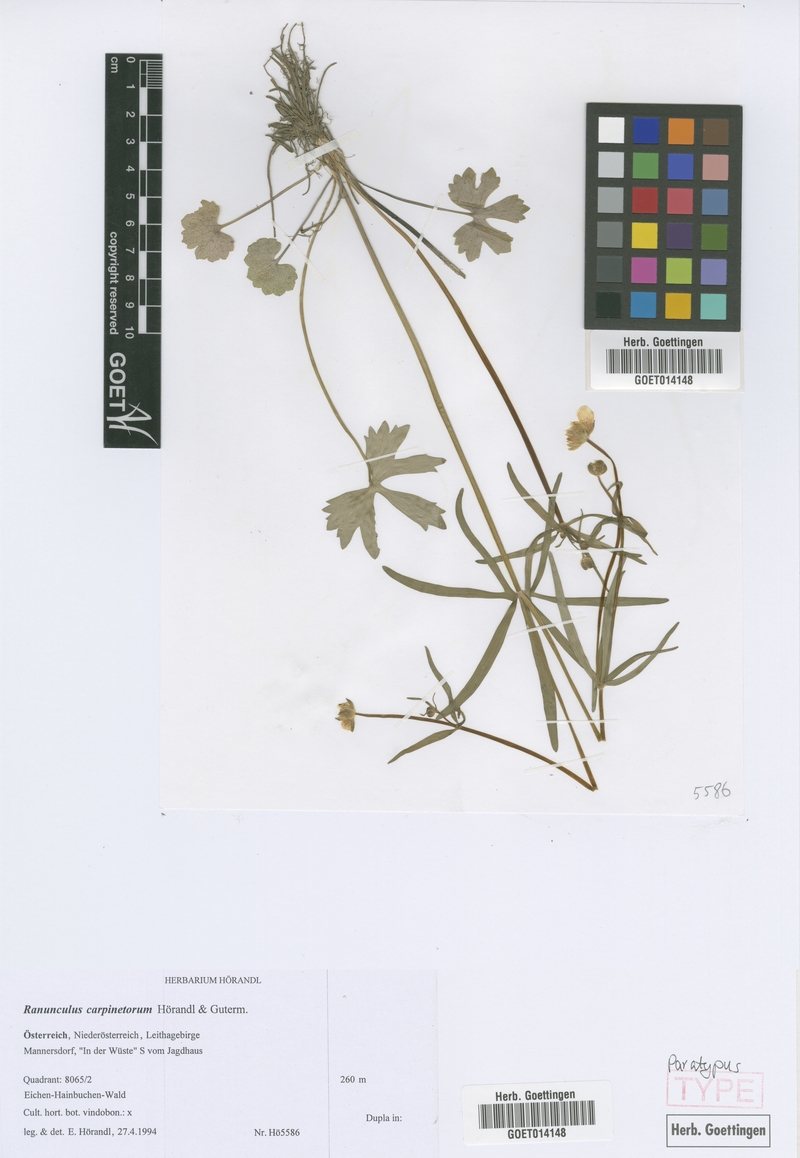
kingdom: Plantae
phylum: Tracheophyta
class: Magnoliopsida
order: Ranunculales
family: Ranunculaceae
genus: Ranunculus
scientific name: Ranunculus carpinetorum
